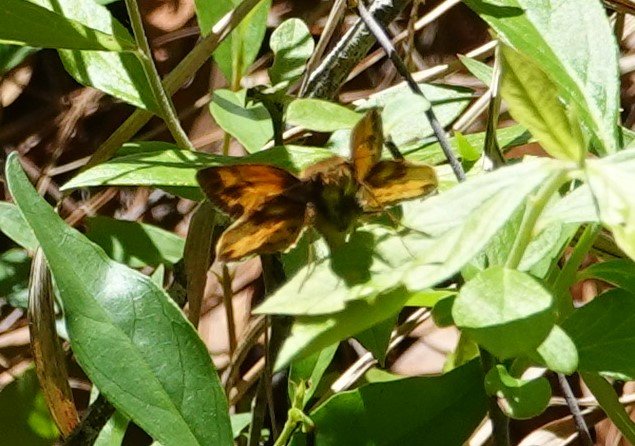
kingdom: Animalia
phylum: Arthropoda
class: Insecta
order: Lepidoptera
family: Hesperiidae
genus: Lon
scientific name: Lon zabulon
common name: Zabulon Skipper
